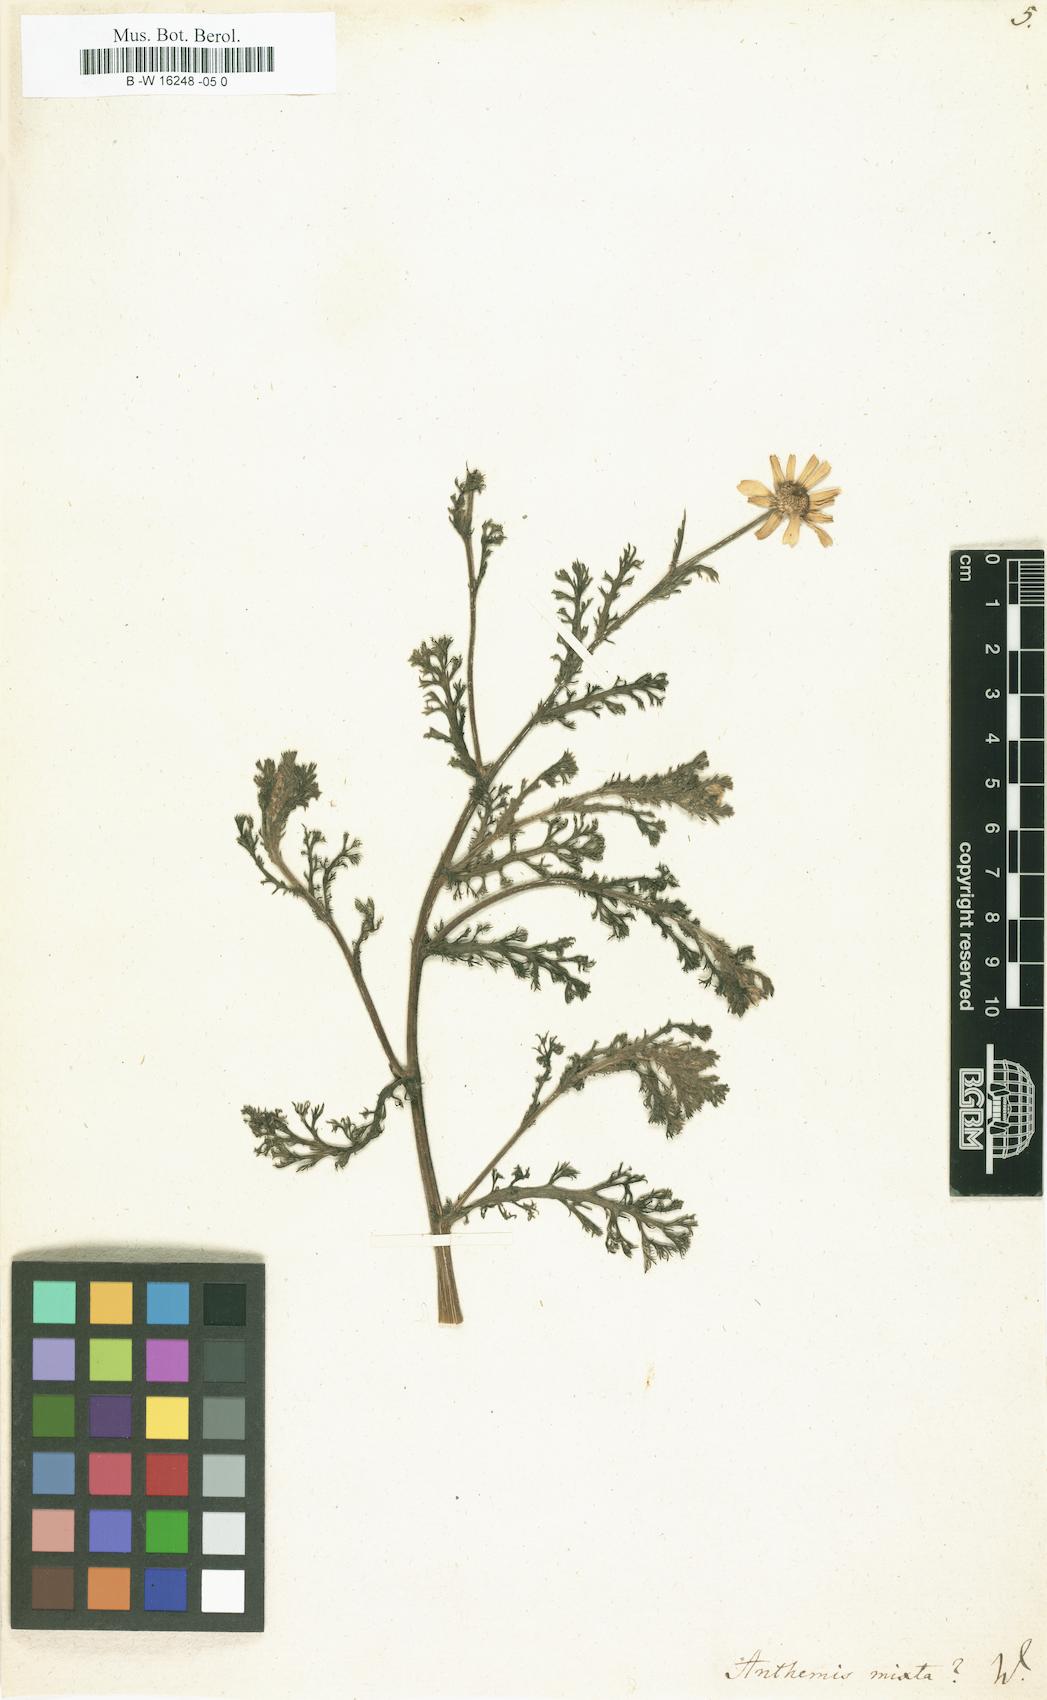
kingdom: Plantae
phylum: Tracheophyta
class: Magnoliopsida
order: Asterales
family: Asteraceae
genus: Cladanthus
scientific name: Cladanthus mixtus
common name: Weedy dogfennel
